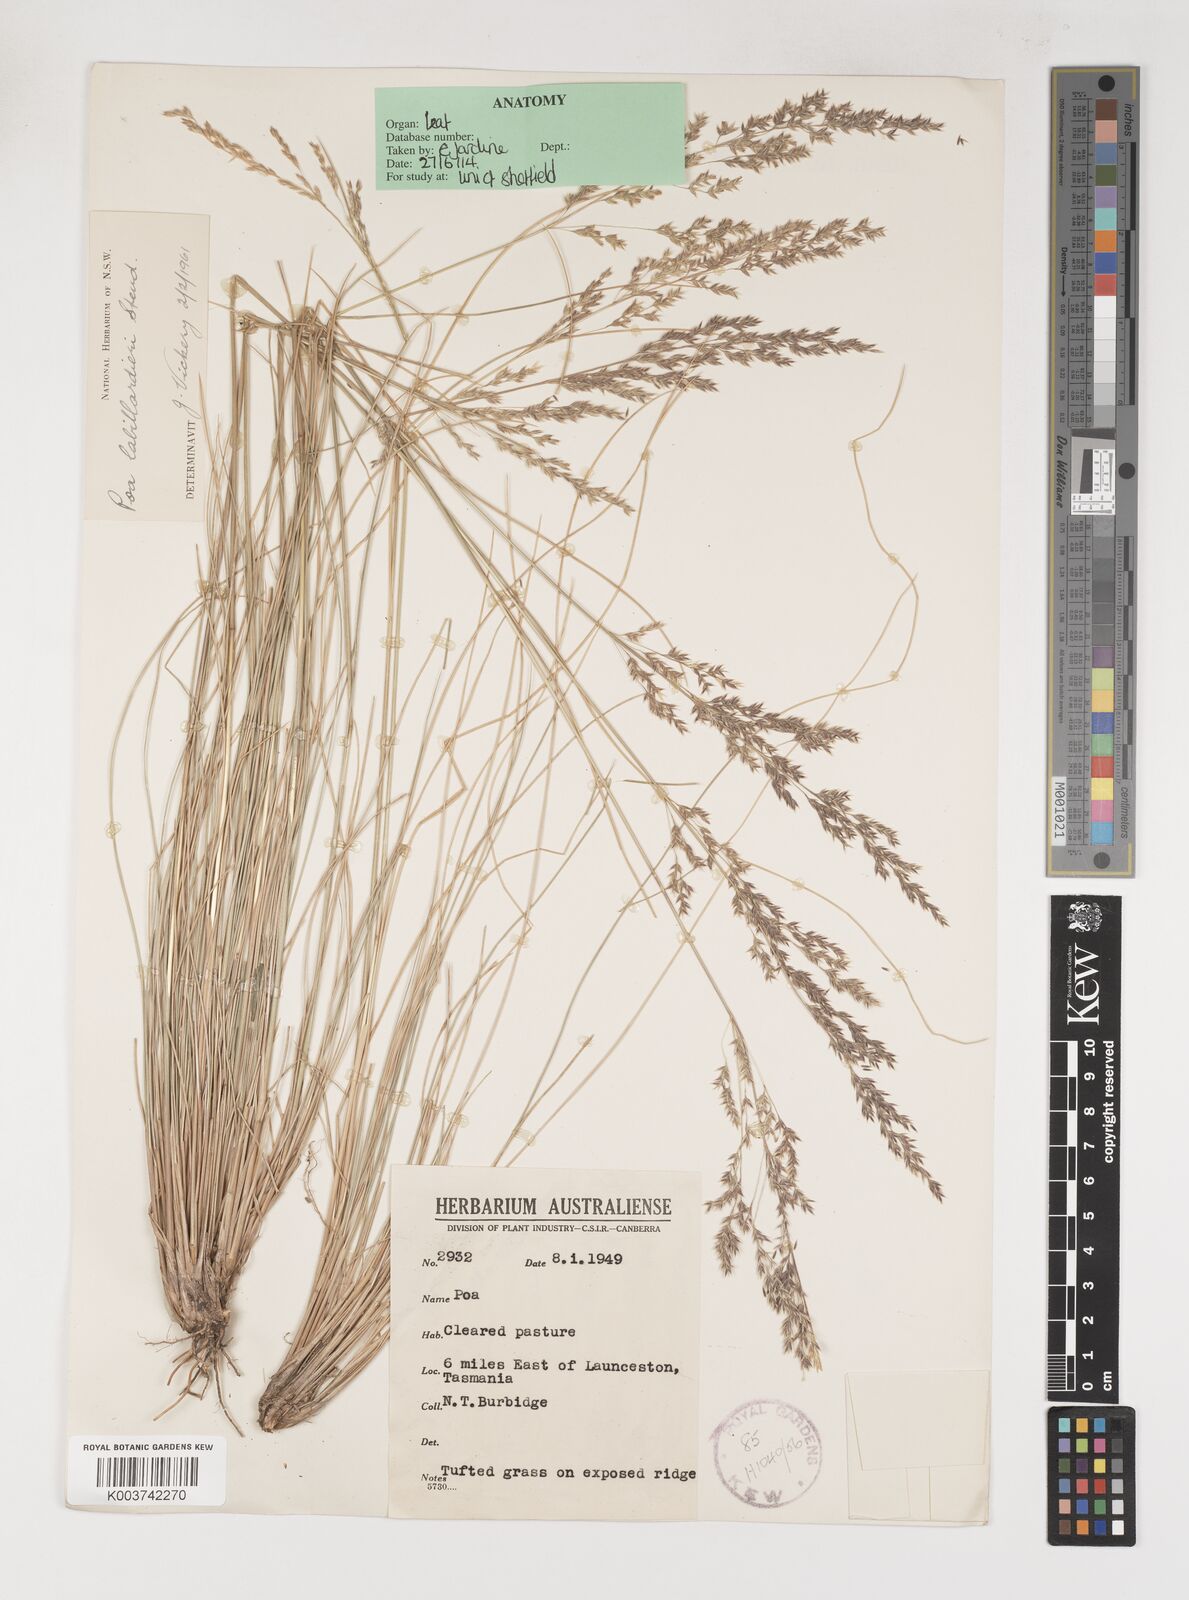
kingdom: Plantae
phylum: Tracheophyta
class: Liliopsida
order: Poales
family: Poaceae
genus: Poa
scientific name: Poa labillardierei
